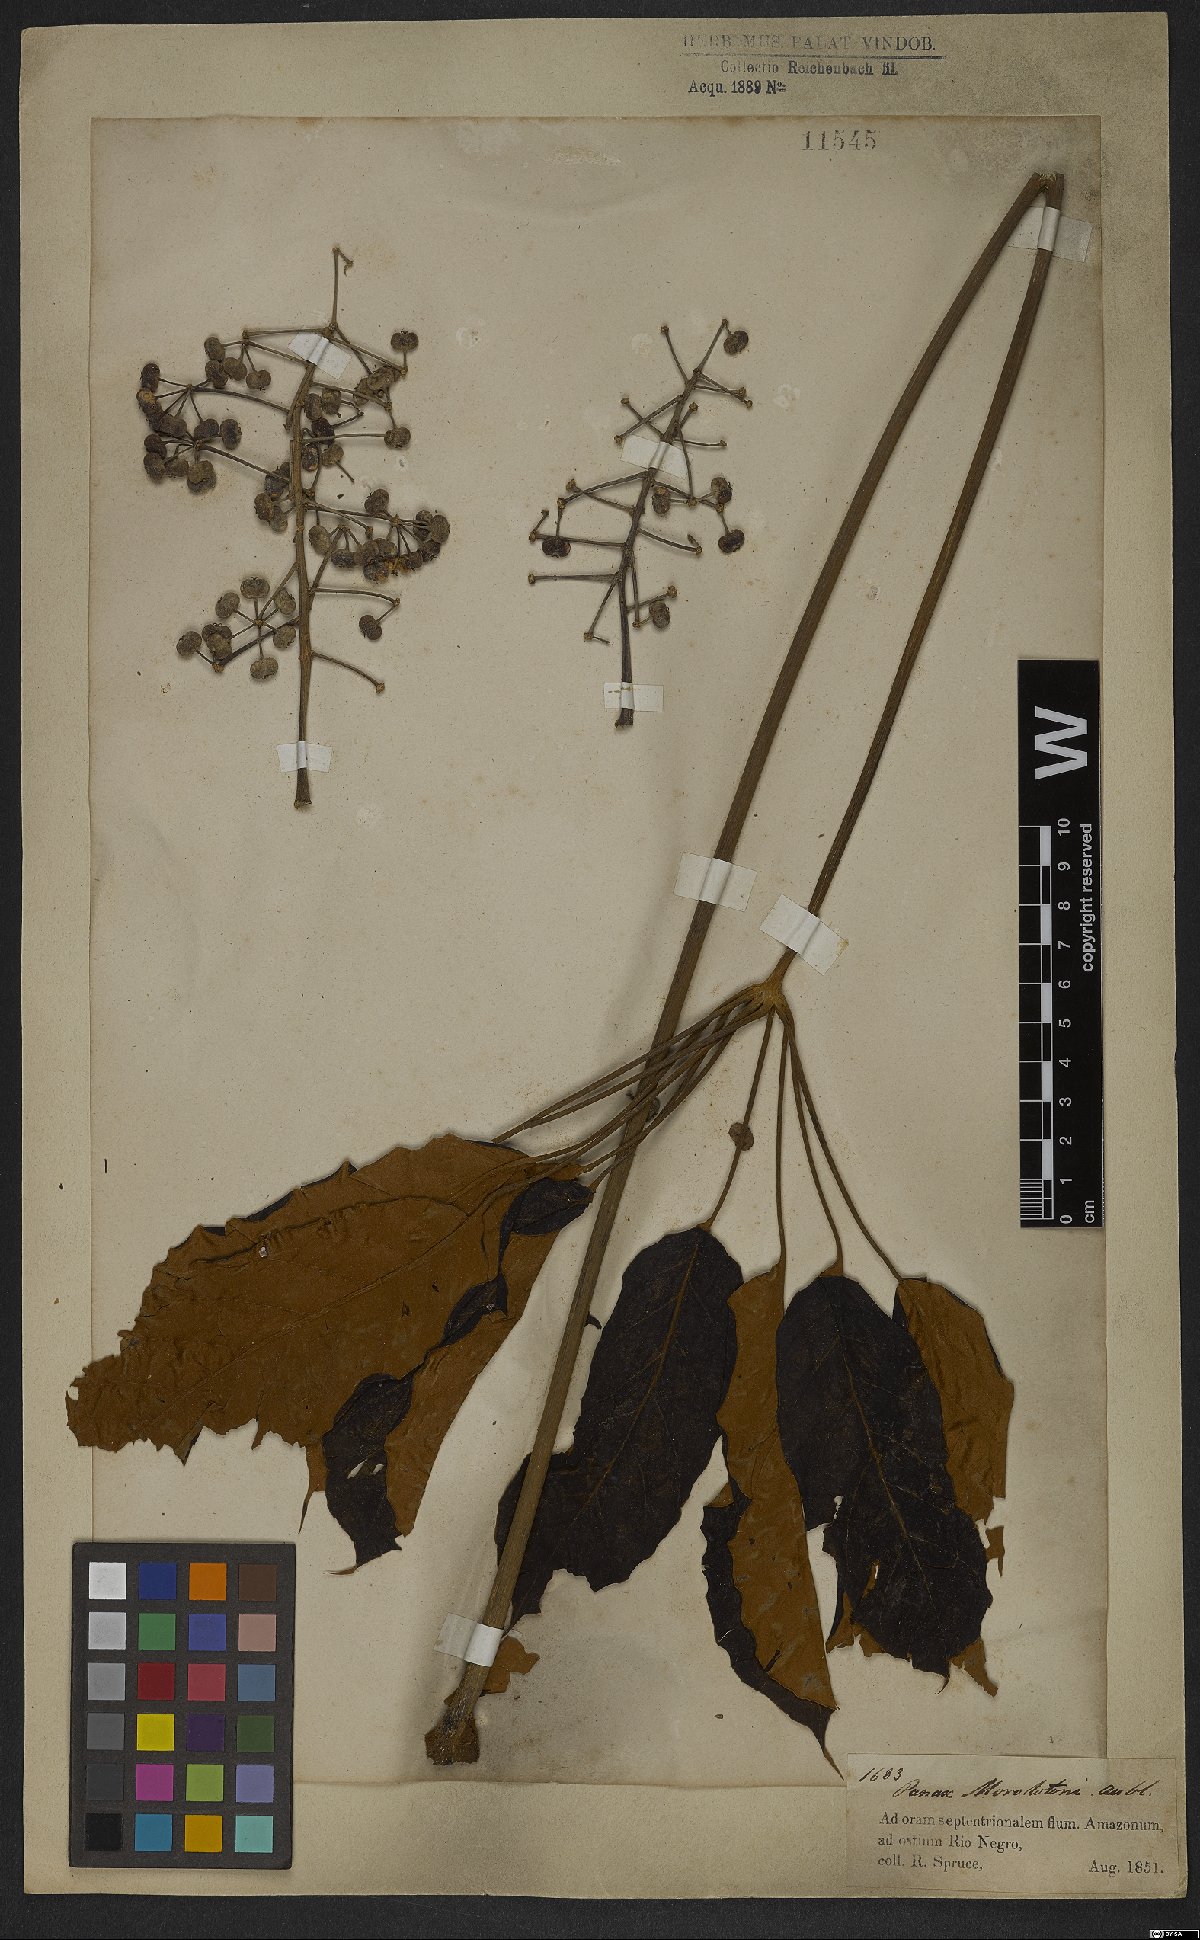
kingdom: Plantae
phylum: Tracheophyta
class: Magnoliopsida
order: Apiales
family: Araliaceae
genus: Didymopanax
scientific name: Didymopanax morototoni
